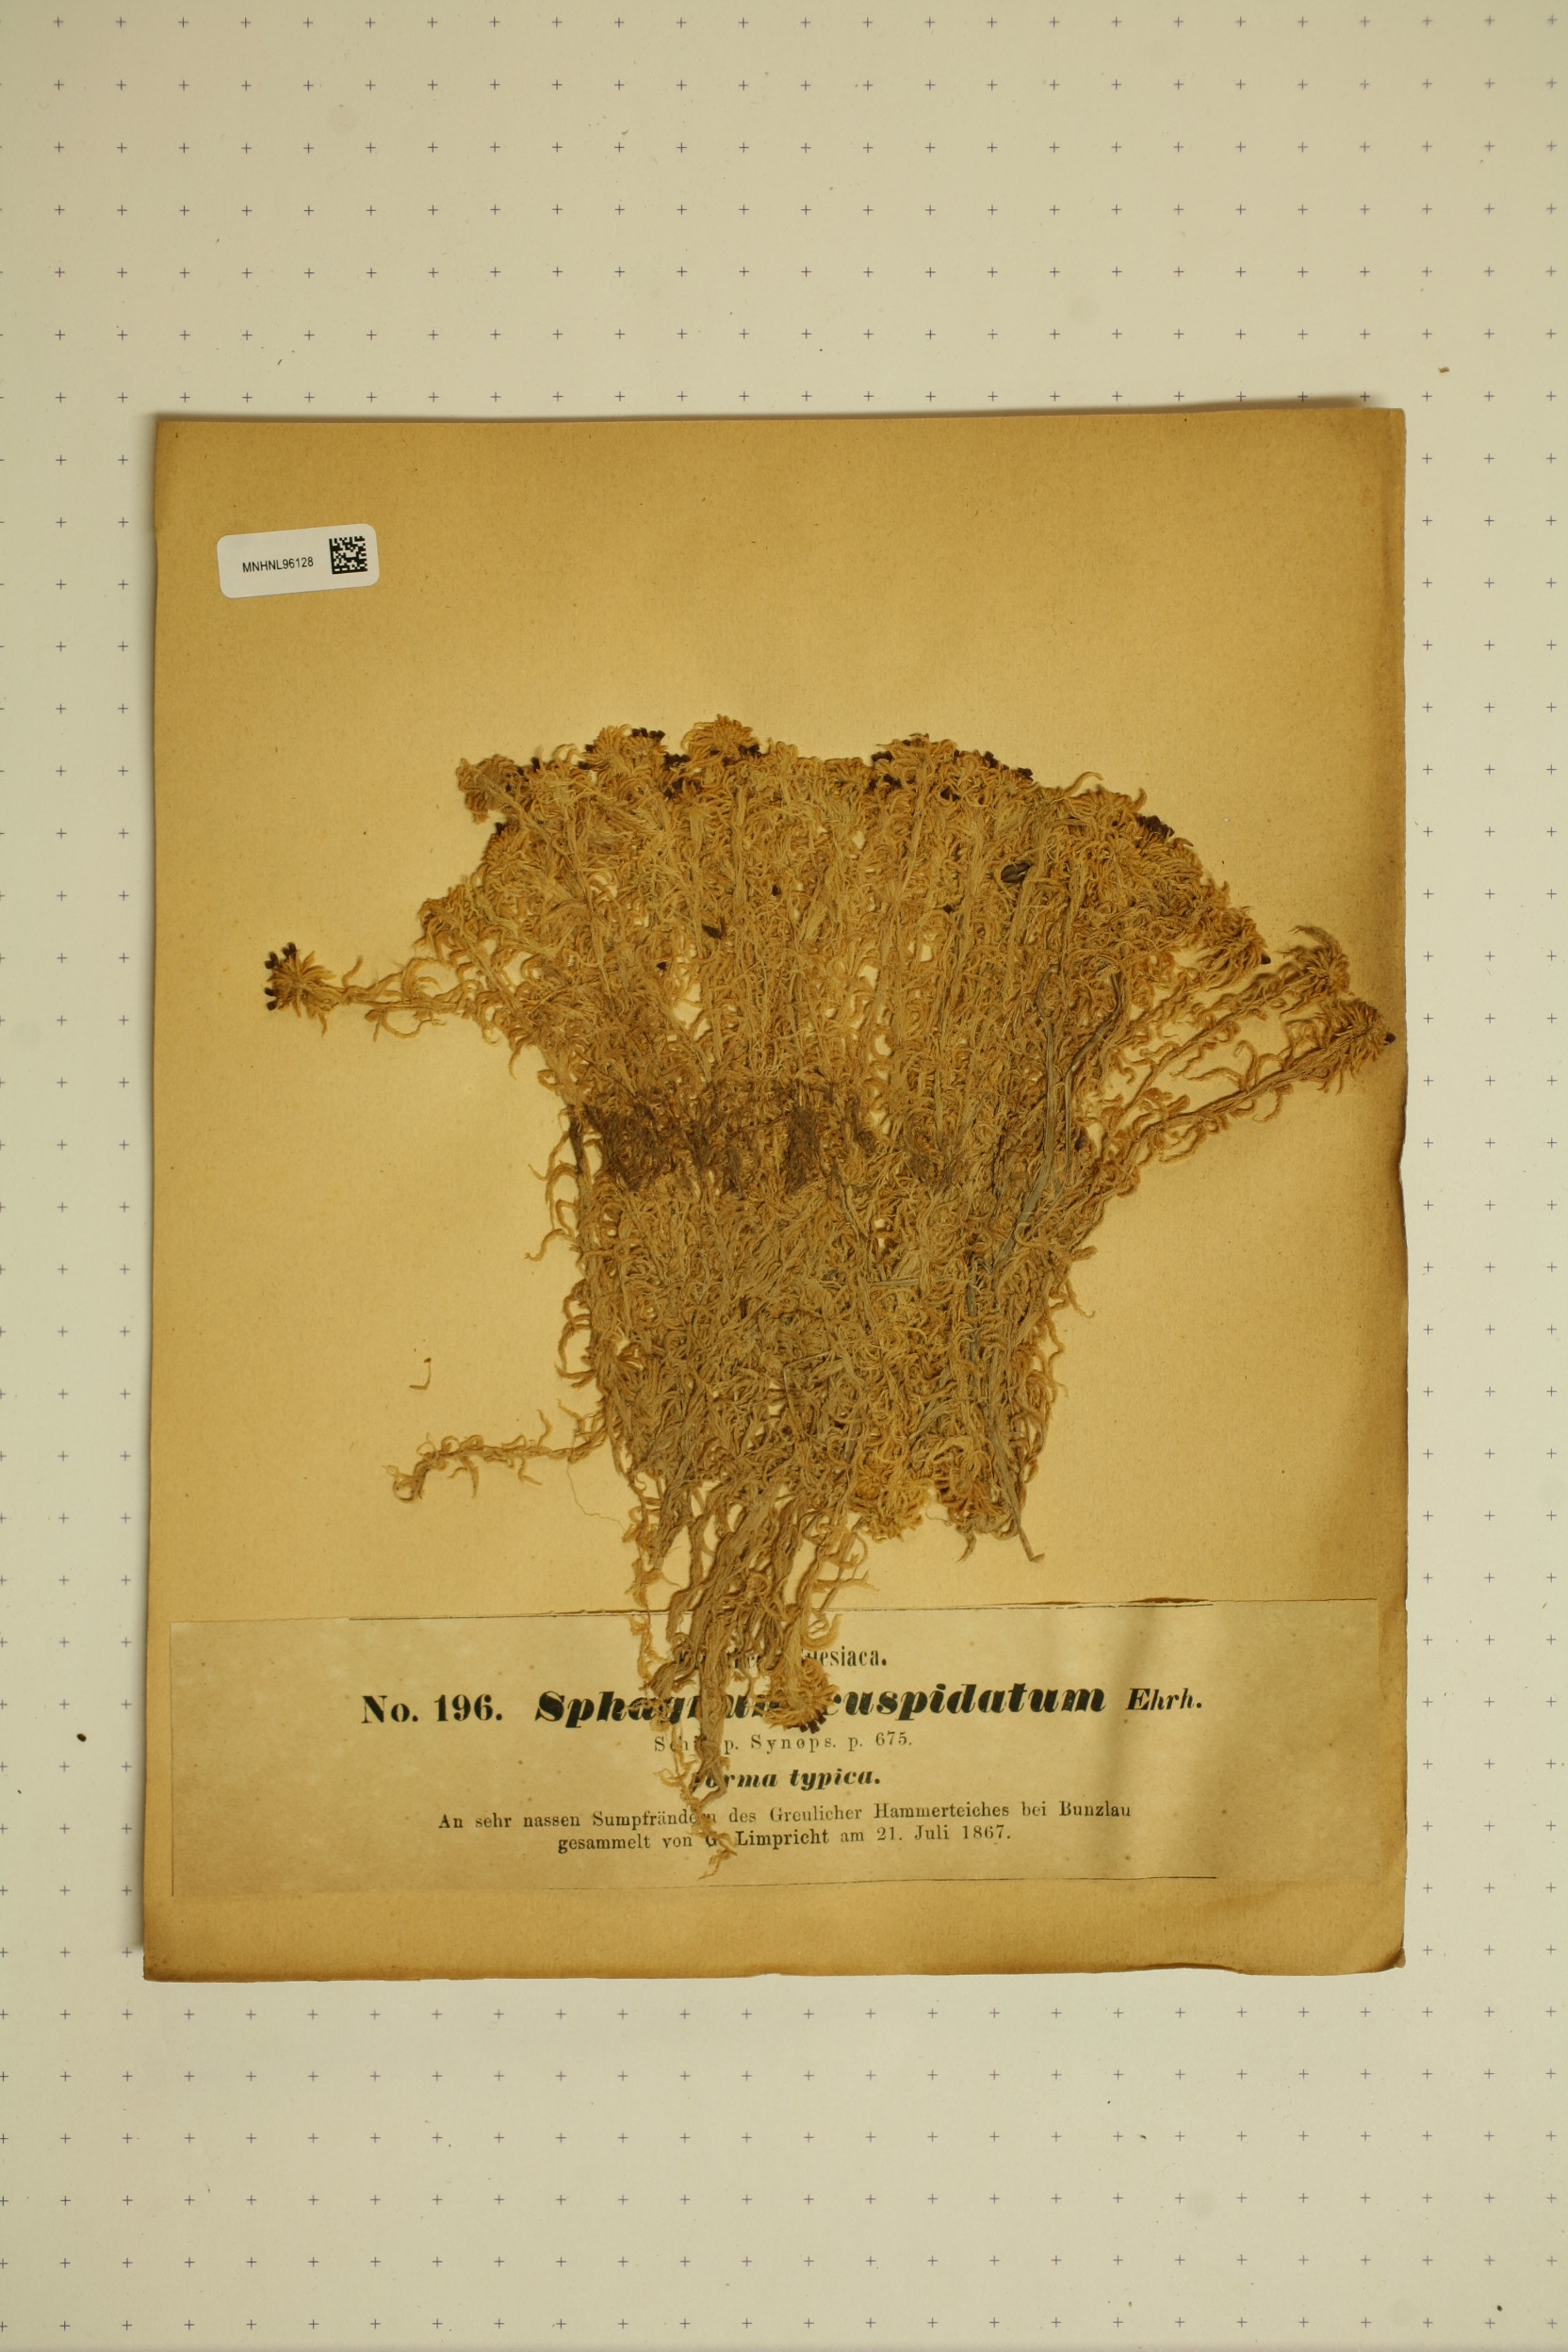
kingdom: Plantae
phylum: Bryophyta
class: Sphagnopsida
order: Sphagnales
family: Sphagnaceae
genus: Sphagnum
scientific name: Sphagnum cuspidatum
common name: Feathery peat moss
